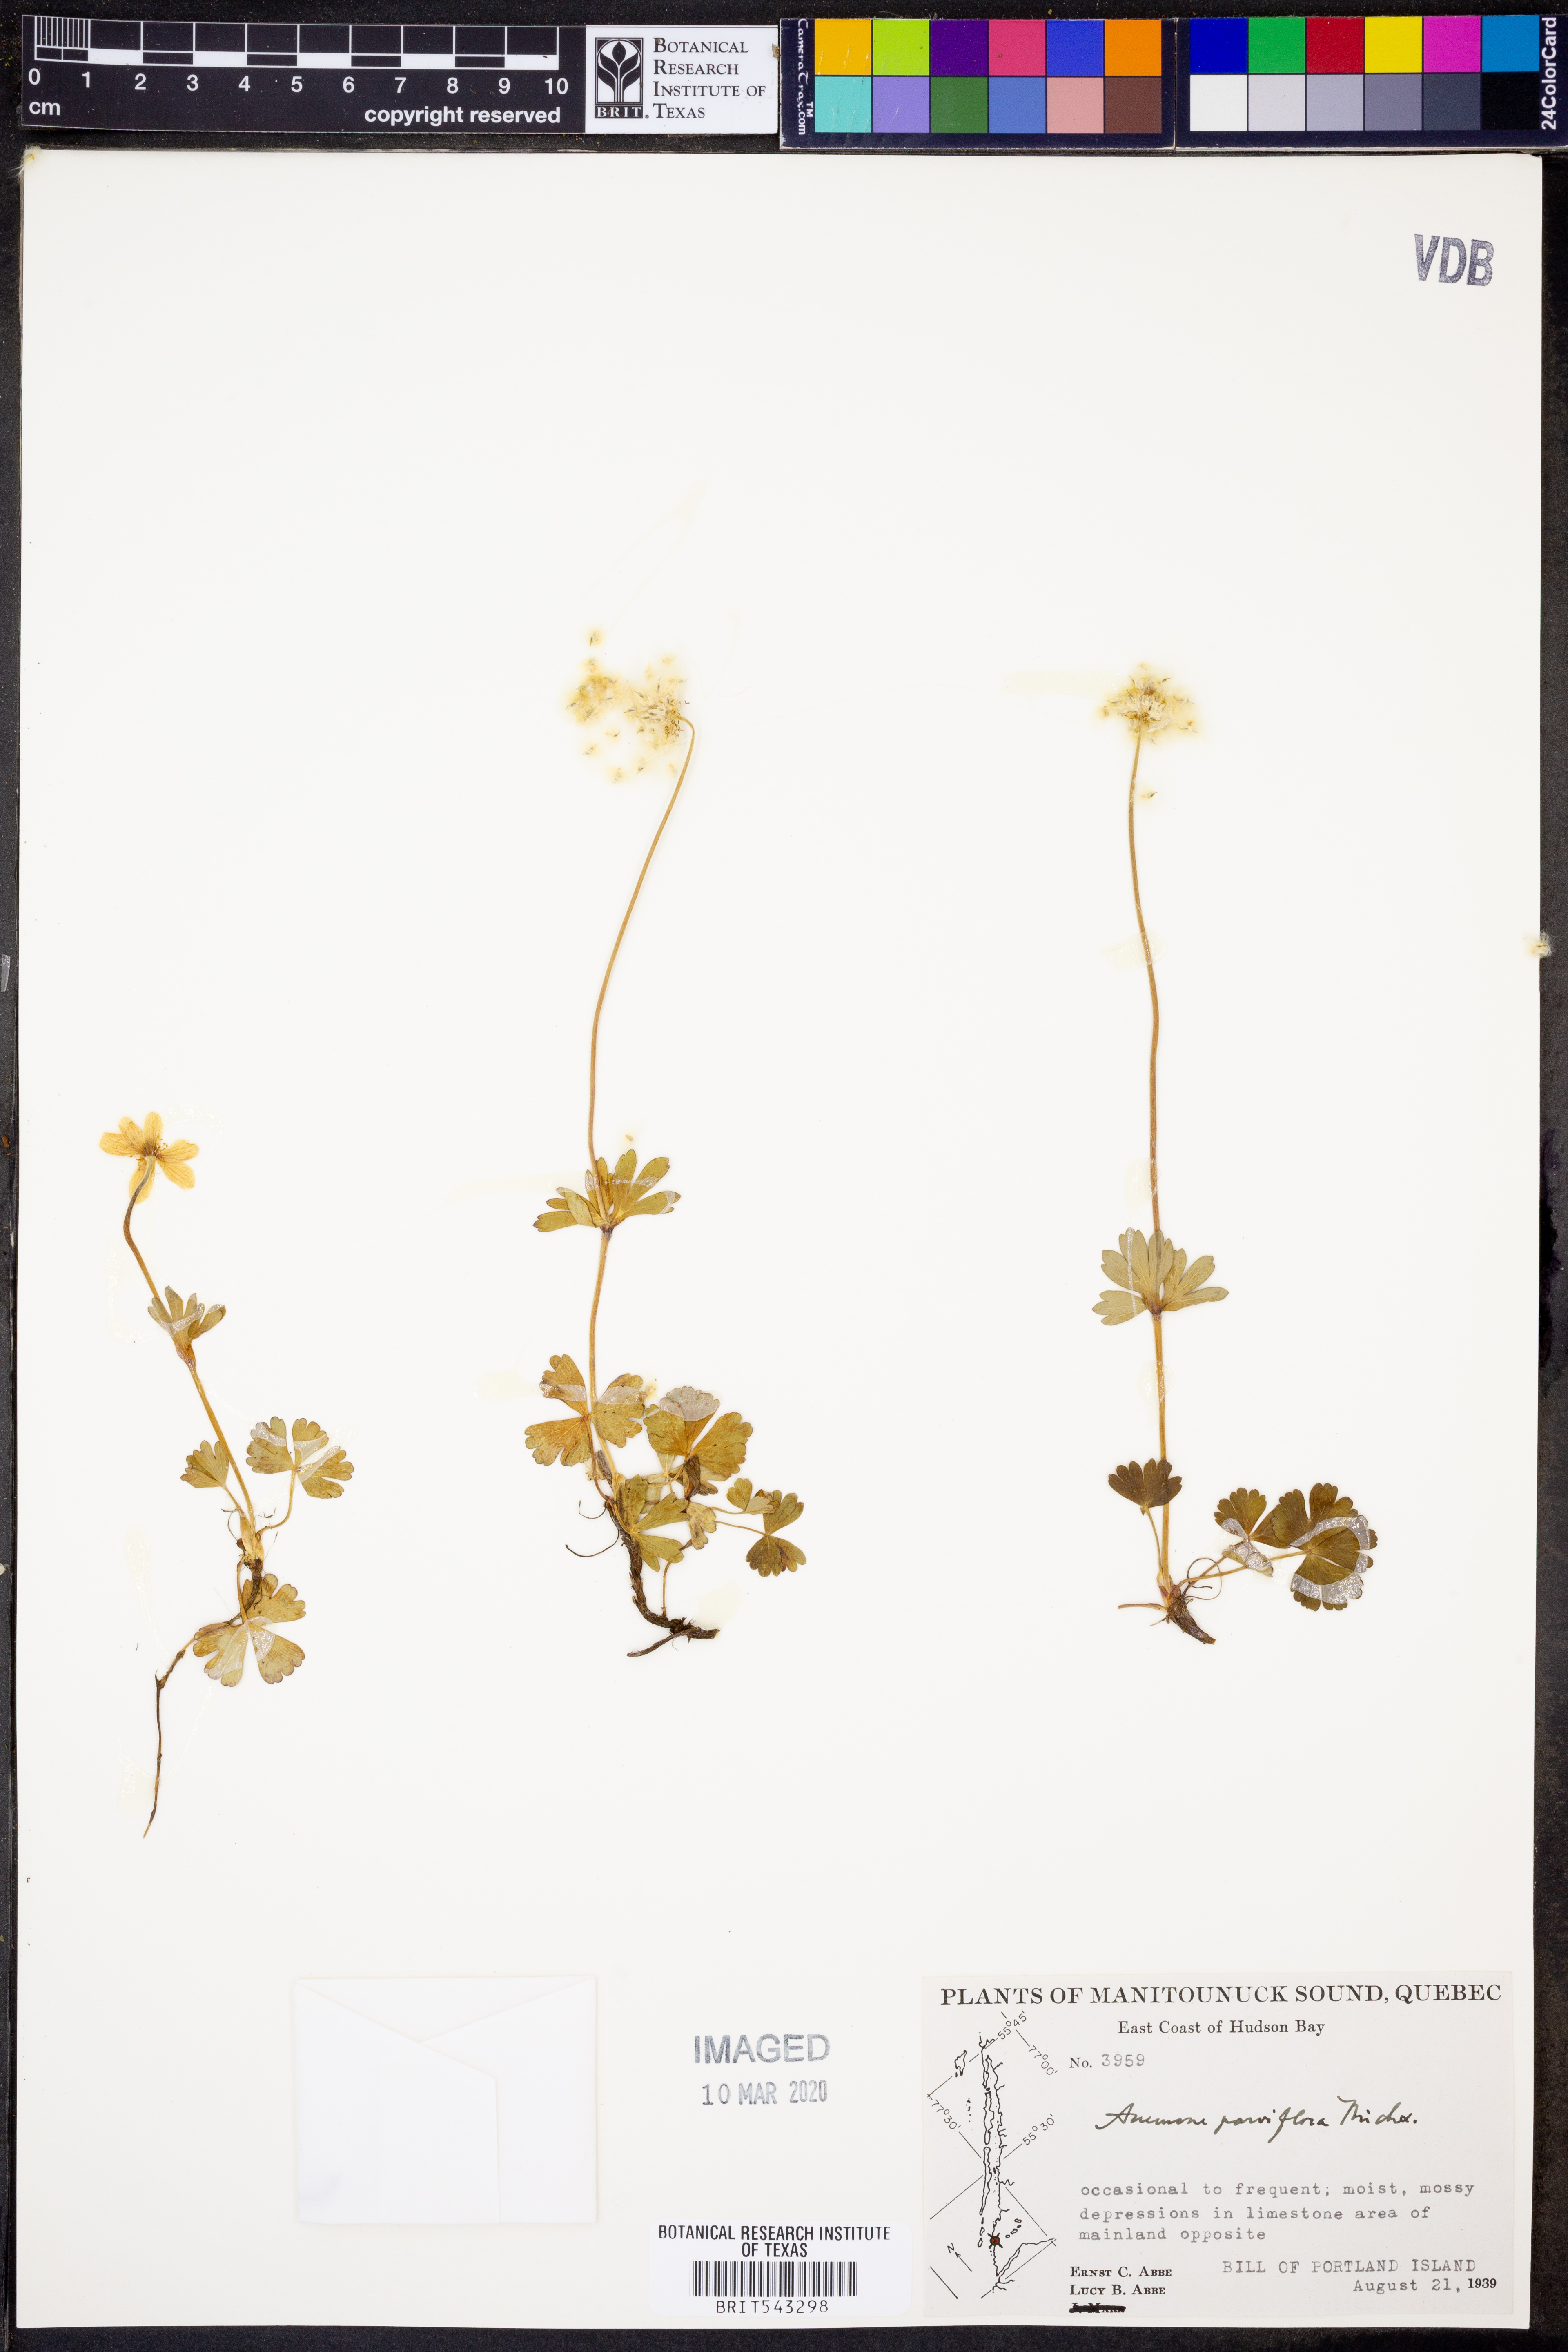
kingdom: Plantae
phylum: Tracheophyta
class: Magnoliopsida
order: Ranunculales
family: Ranunculaceae
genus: Anemone
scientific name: Anemone parviflora
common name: Northern anemone
